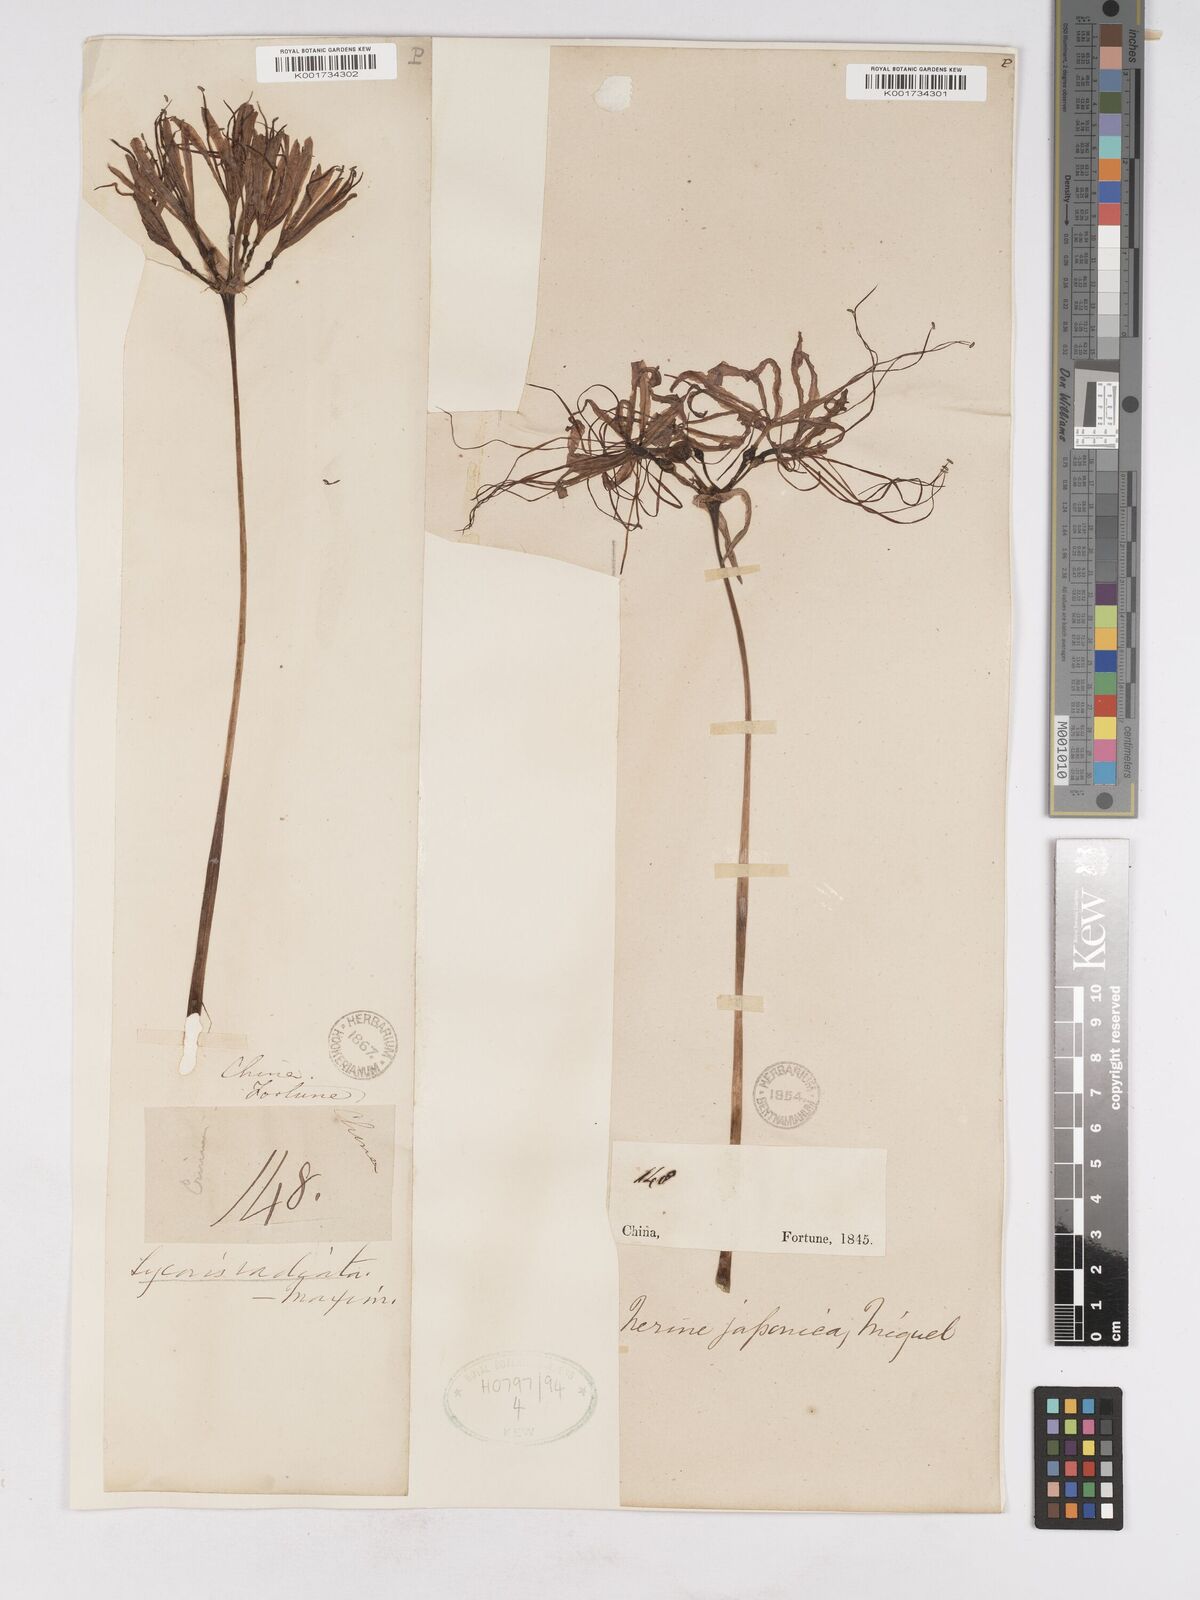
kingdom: Plantae
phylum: Tracheophyta
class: Liliopsida
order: Asparagales
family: Amaryllidaceae
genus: Lycoris
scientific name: Lycoris radiata
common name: Red spider lily
